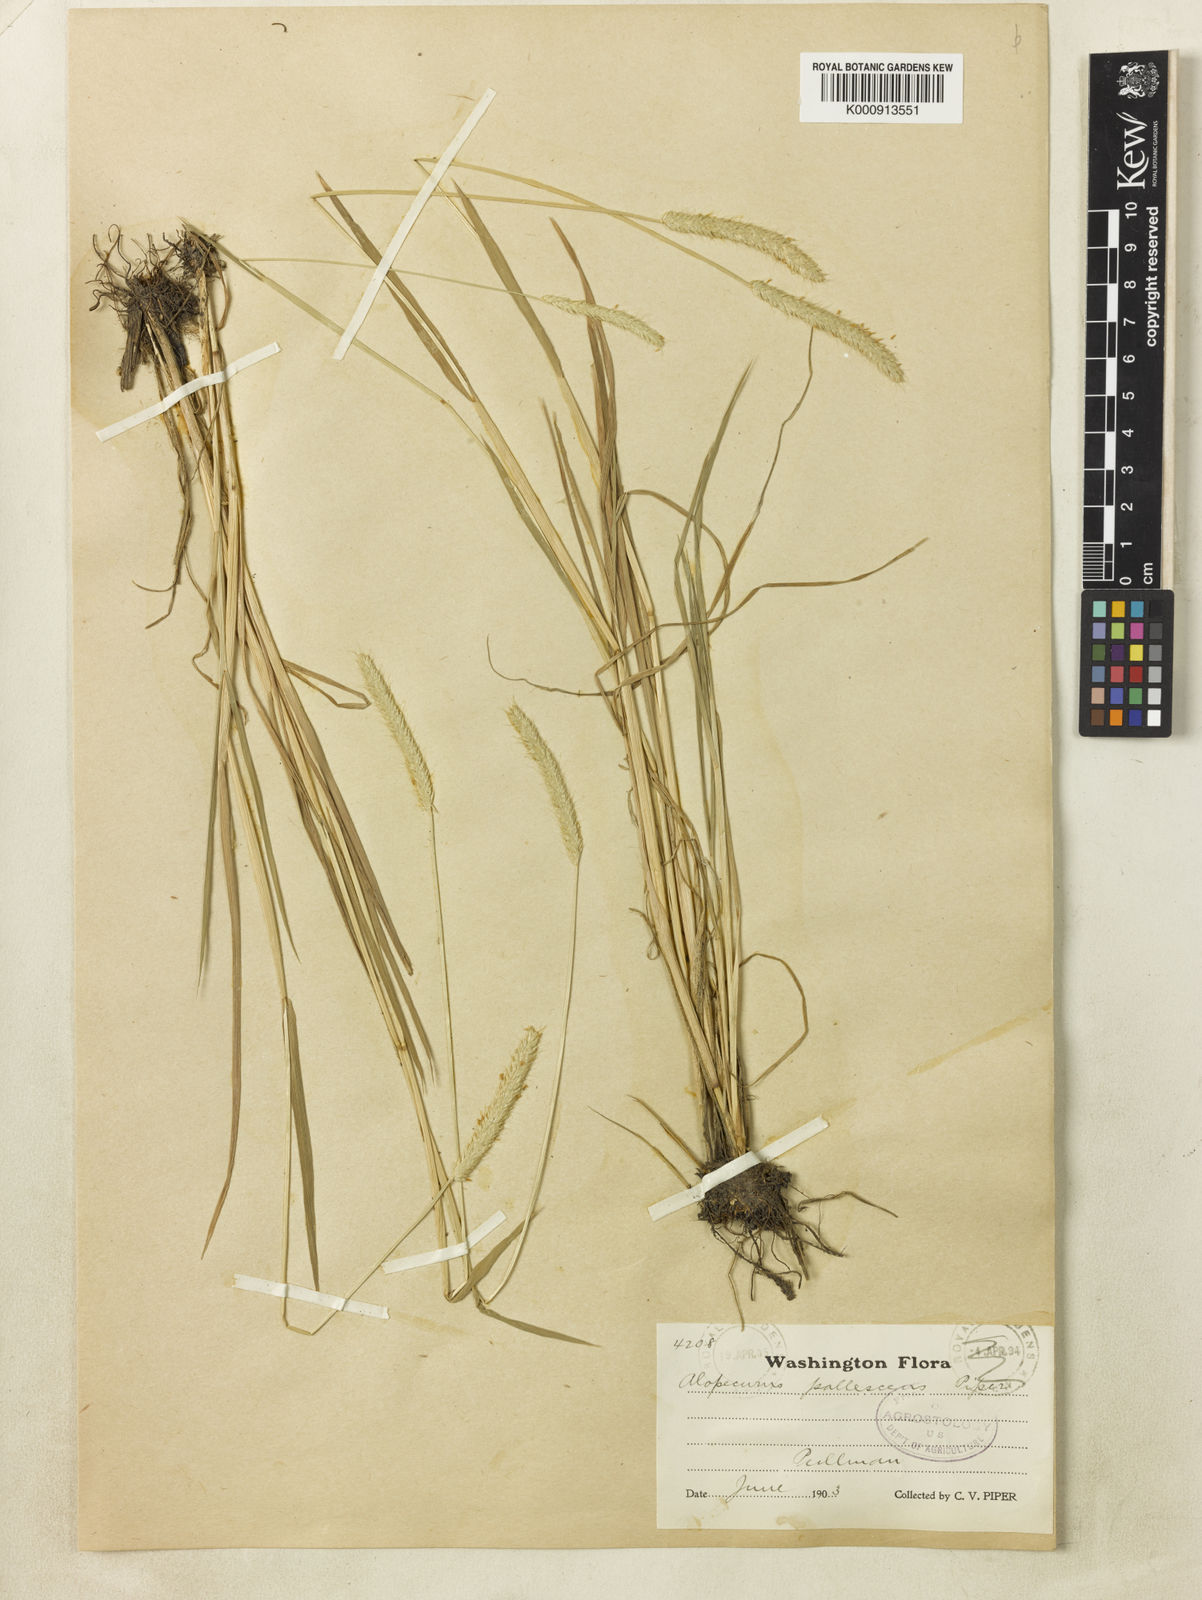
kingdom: Plantae
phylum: Tracheophyta
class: Liliopsida
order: Poales
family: Poaceae
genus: Alopecurus
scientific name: Alopecurus geniculatus
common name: Water foxtail
